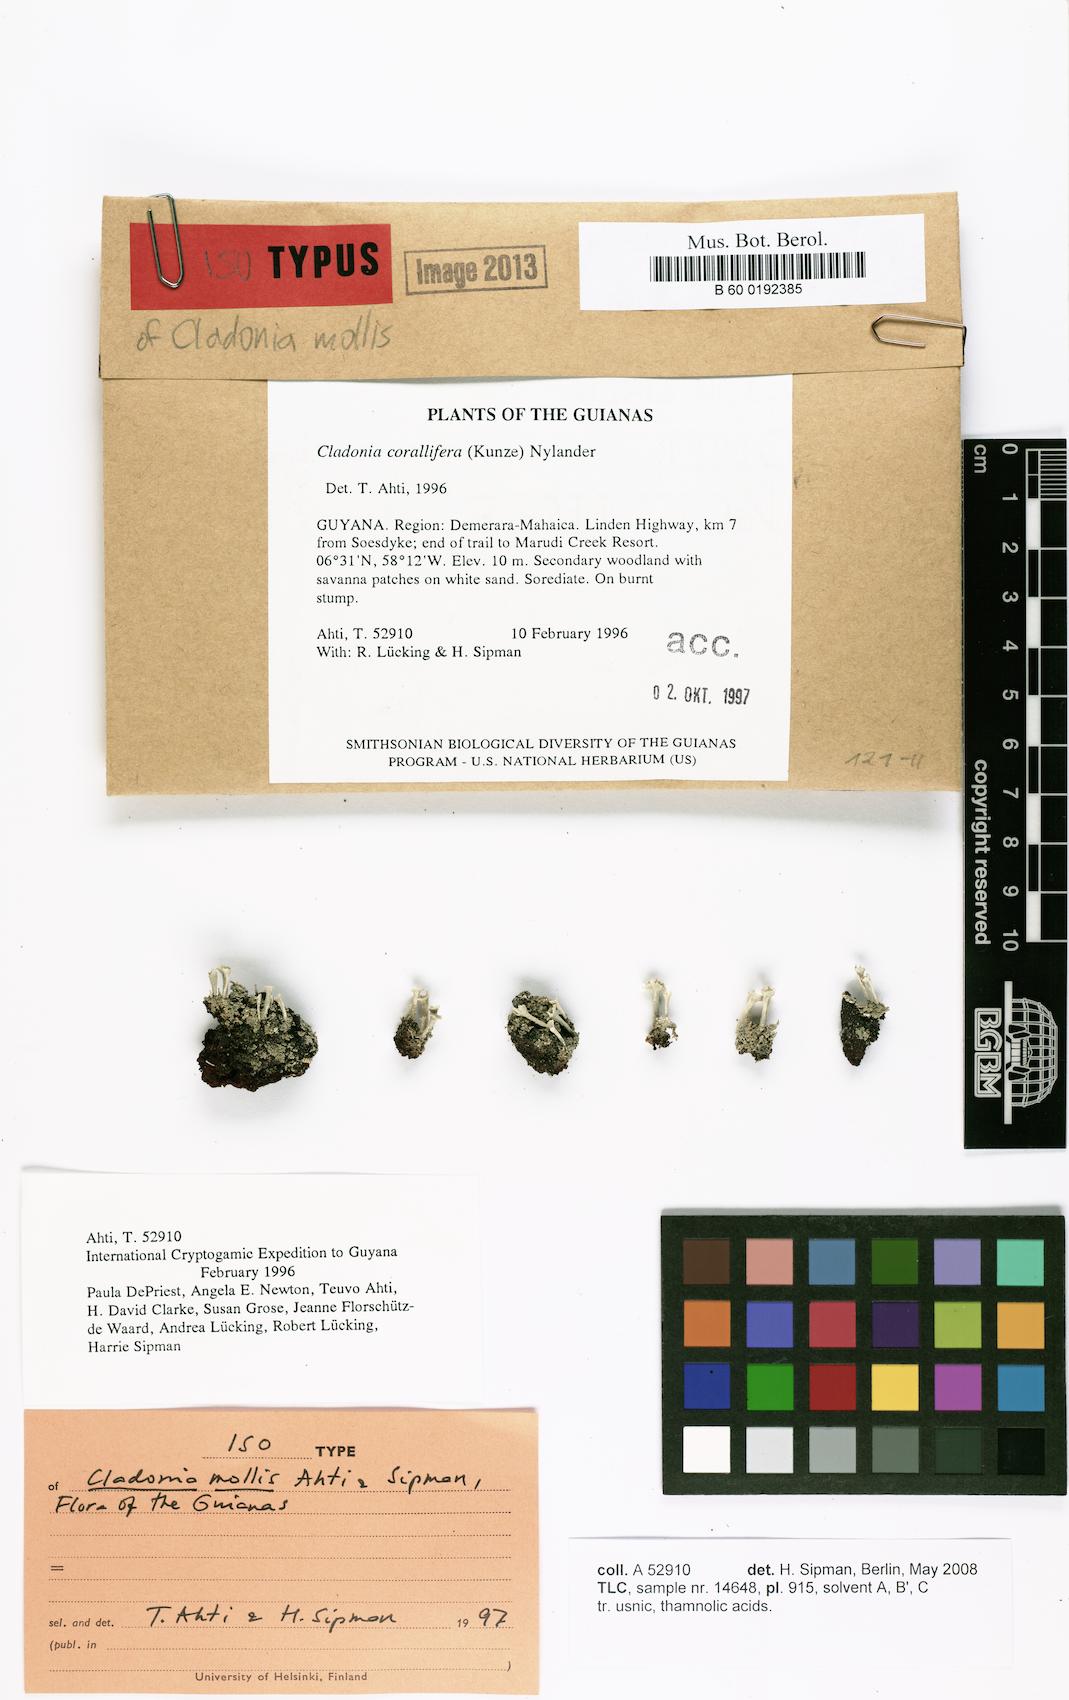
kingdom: Fungi
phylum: Ascomycota
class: Lecanoromycetes
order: Lecanorales
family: Cladoniaceae
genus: Cladonia
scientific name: Cladonia mollis
